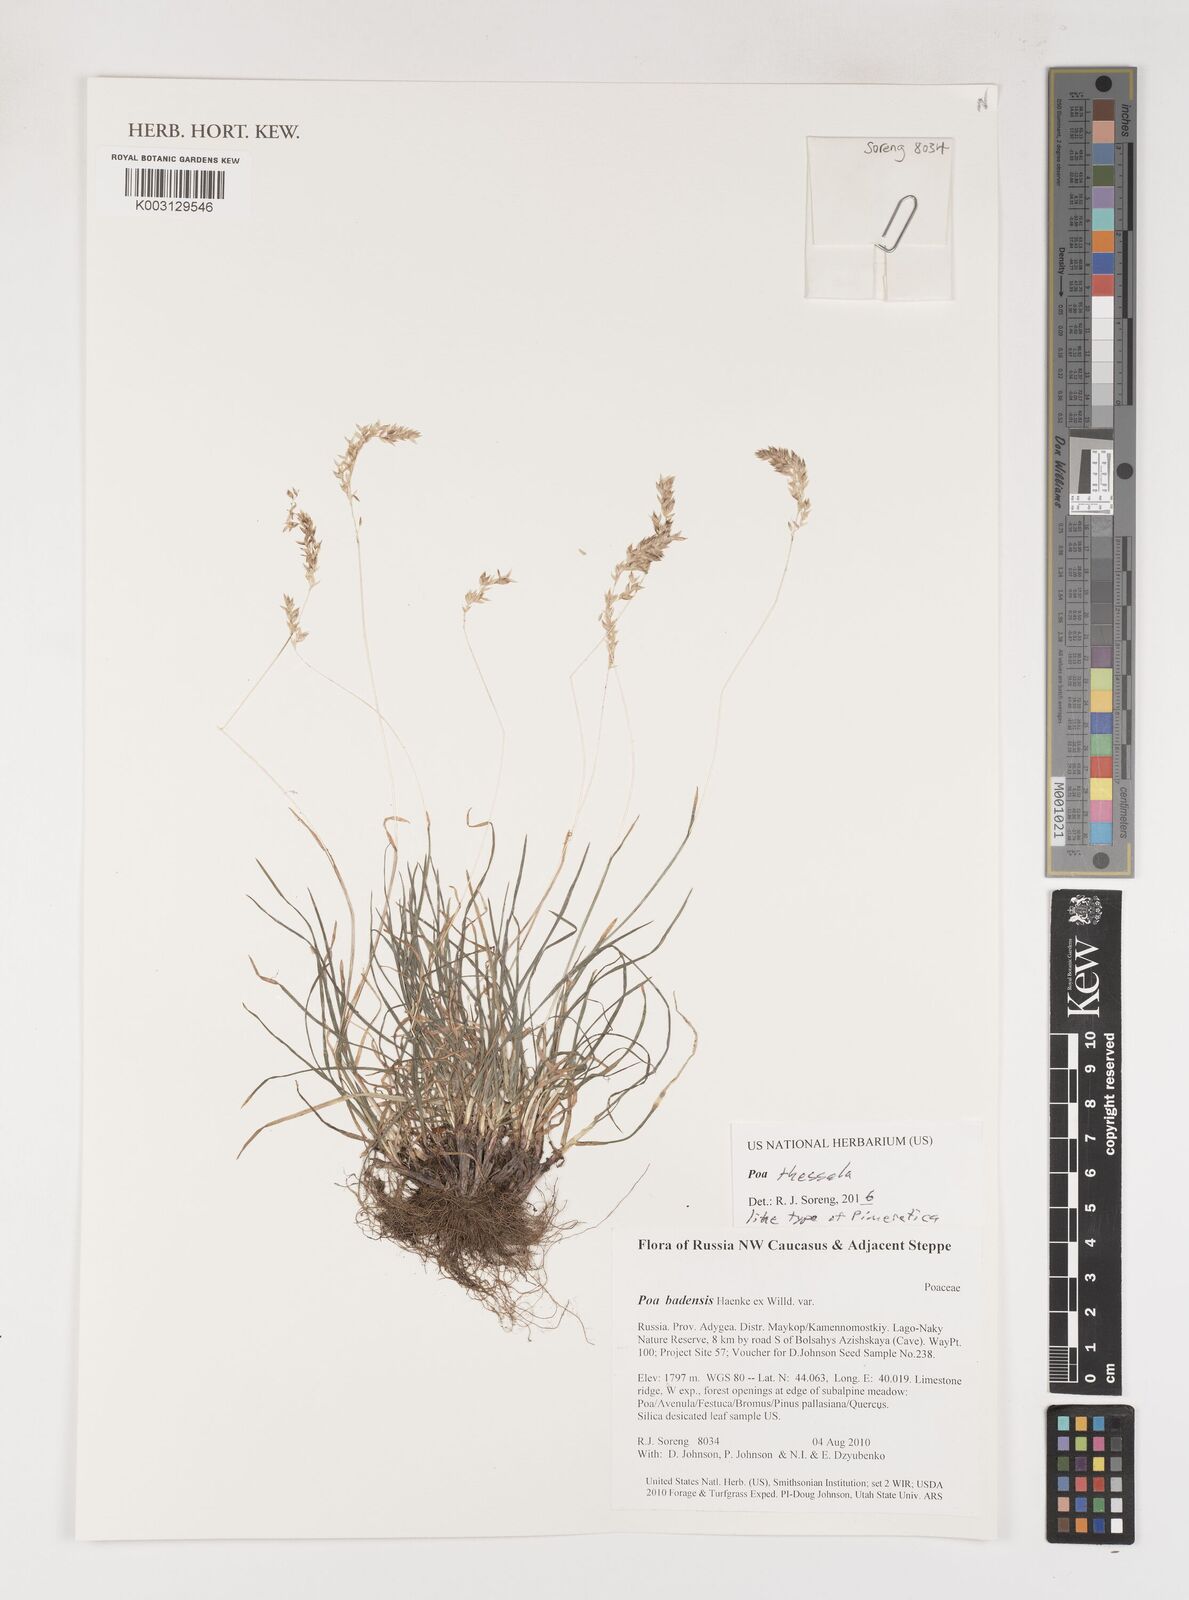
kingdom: Plantae
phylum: Tracheophyta
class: Liliopsida
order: Poales
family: Poaceae
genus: Poa
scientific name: Poa thessala
